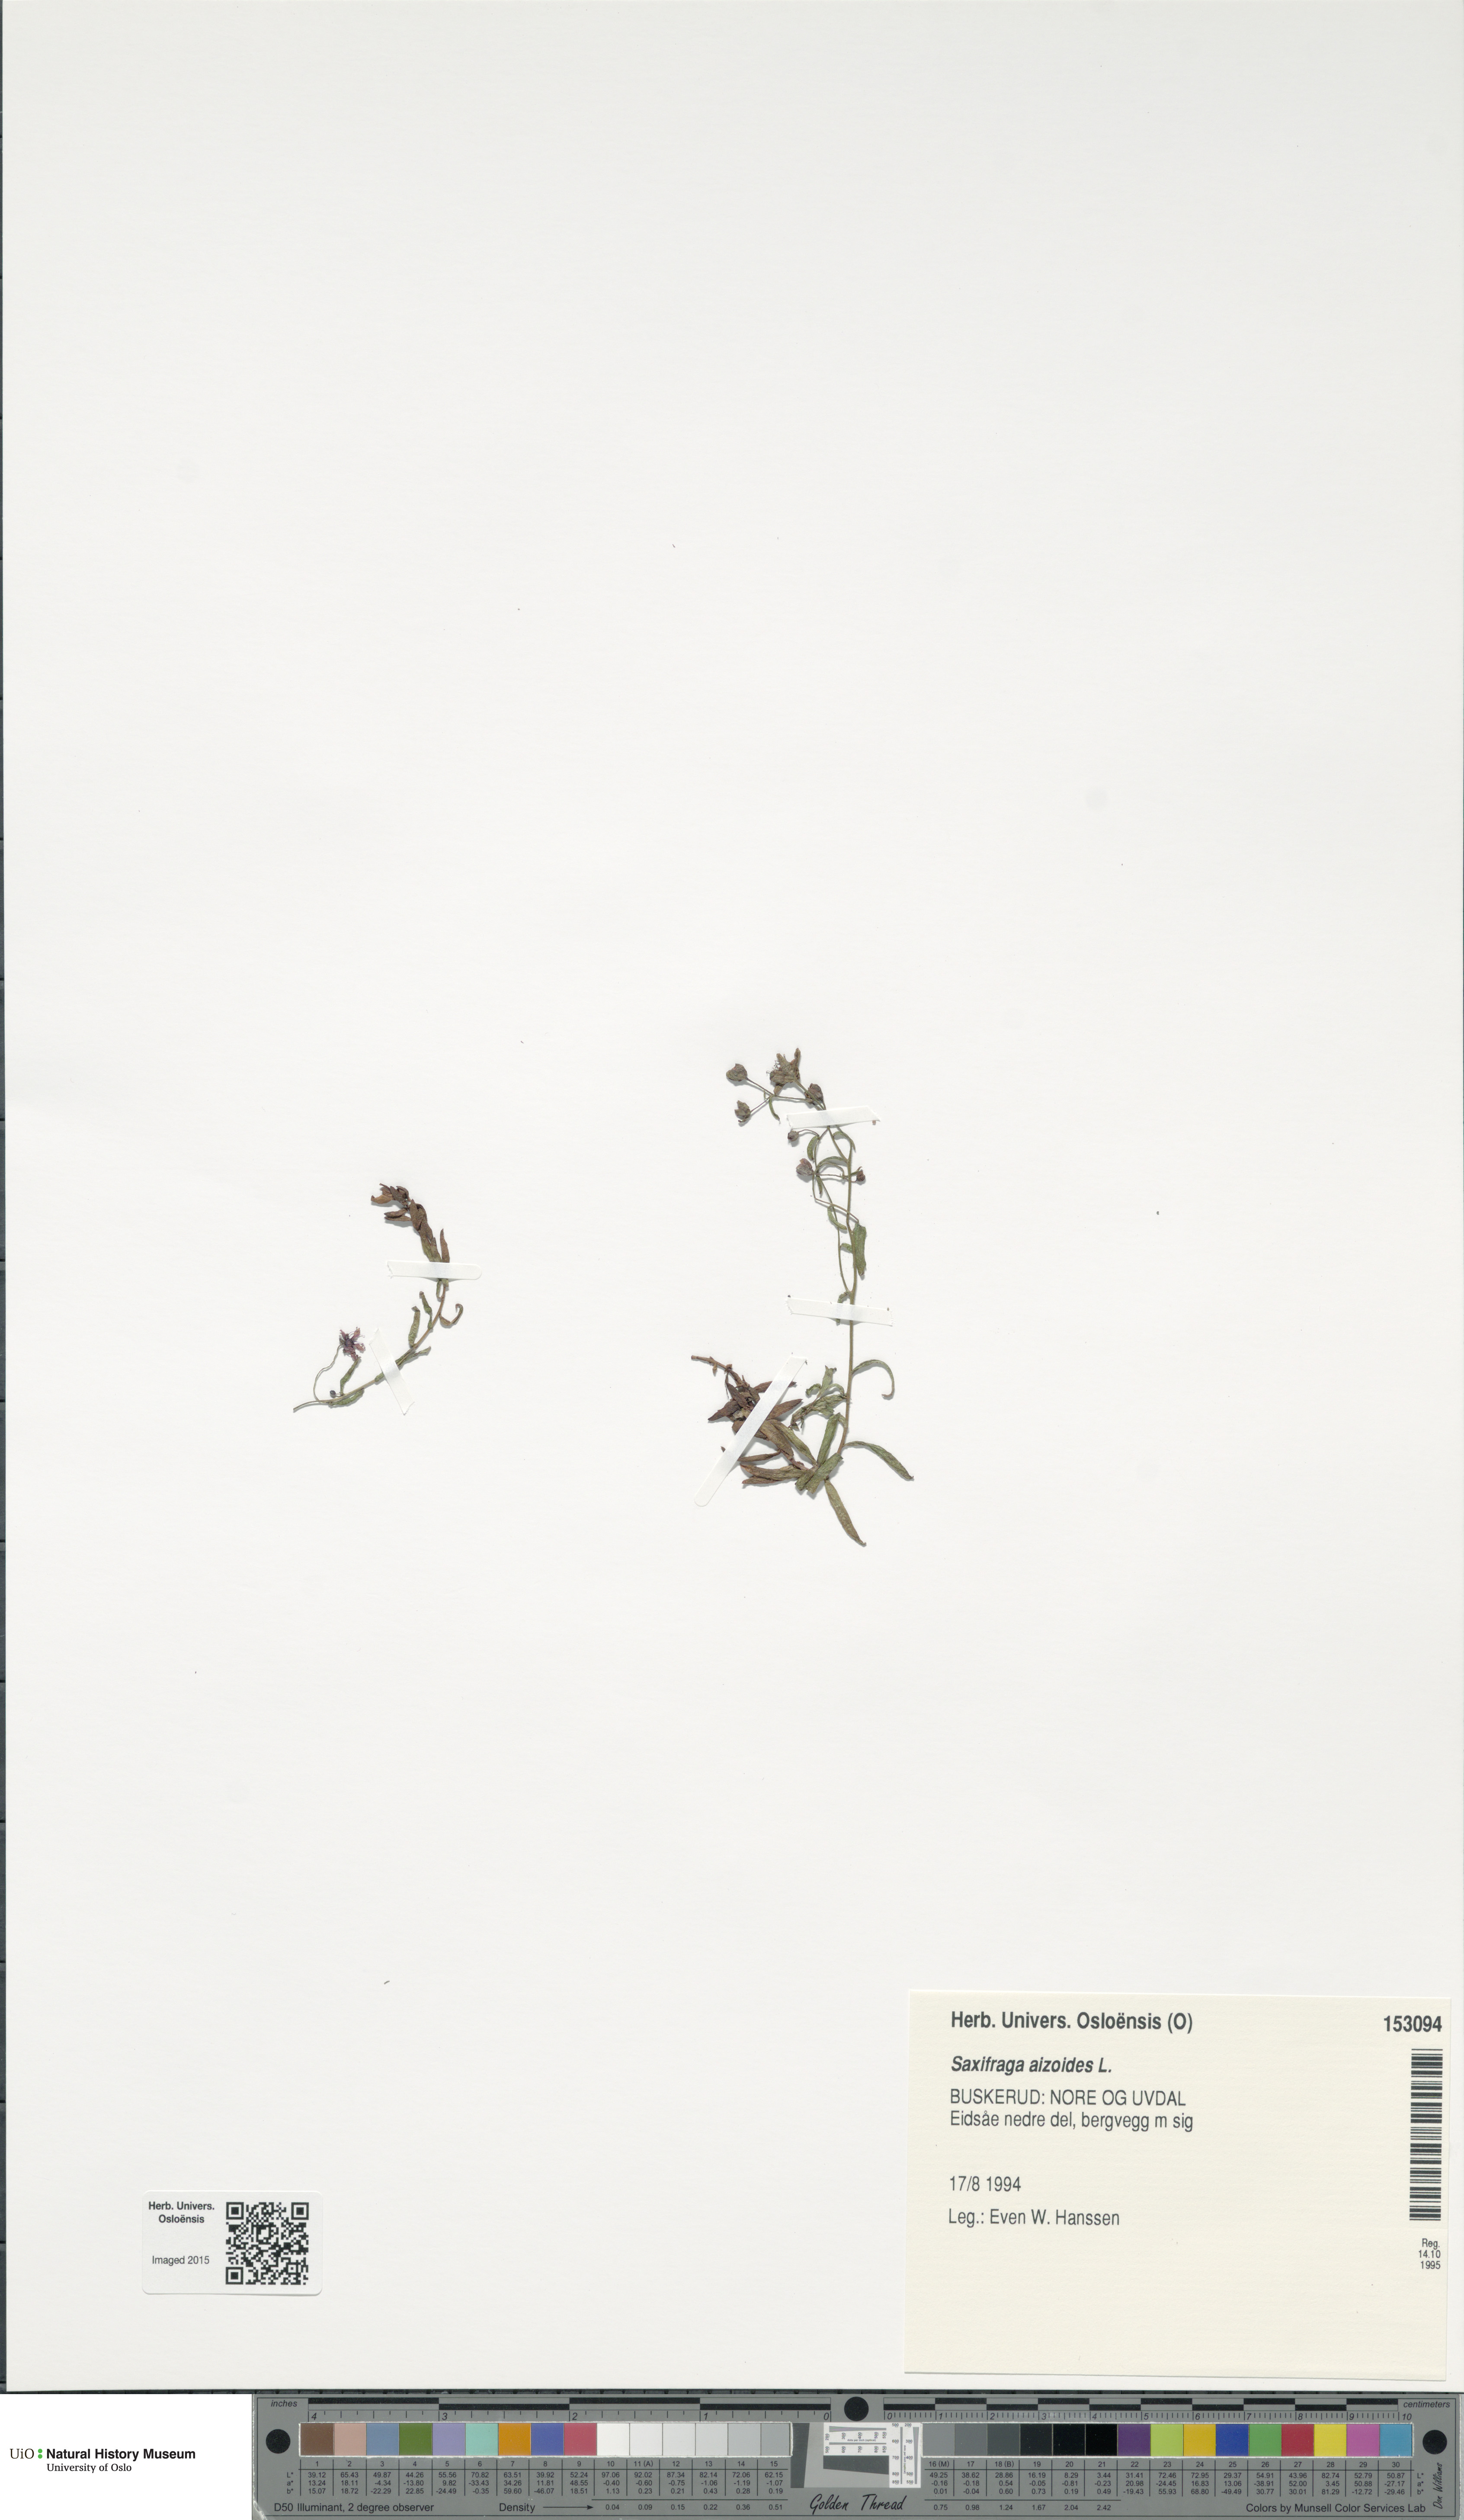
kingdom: Plantae
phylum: Tracheophyta
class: Magnoliopsida
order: Saxifragales
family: Saxifragaceae
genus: Saxifraga
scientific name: Saxifraga aizoides
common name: Yellow mountain saxifrage
